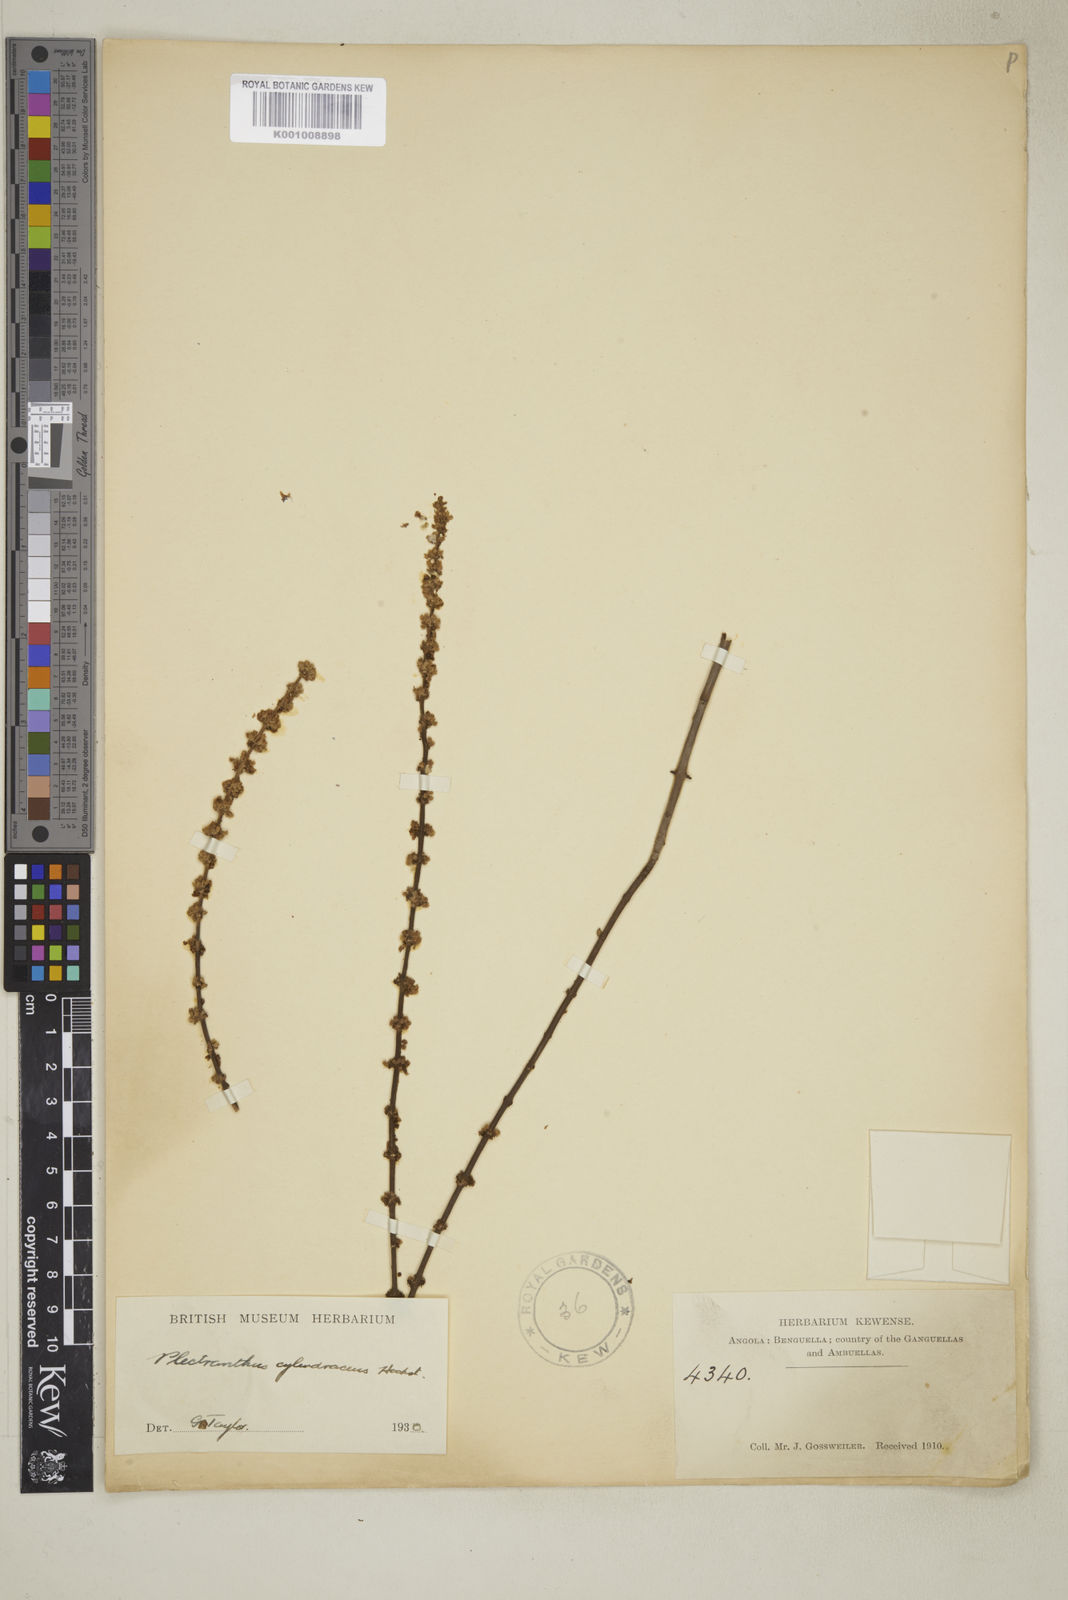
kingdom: Plantae
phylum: Tracheophyta
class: Magnoliopsida
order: Lamiales
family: Lamiaceae
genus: Coleus
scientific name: Coleus cylindraceus
